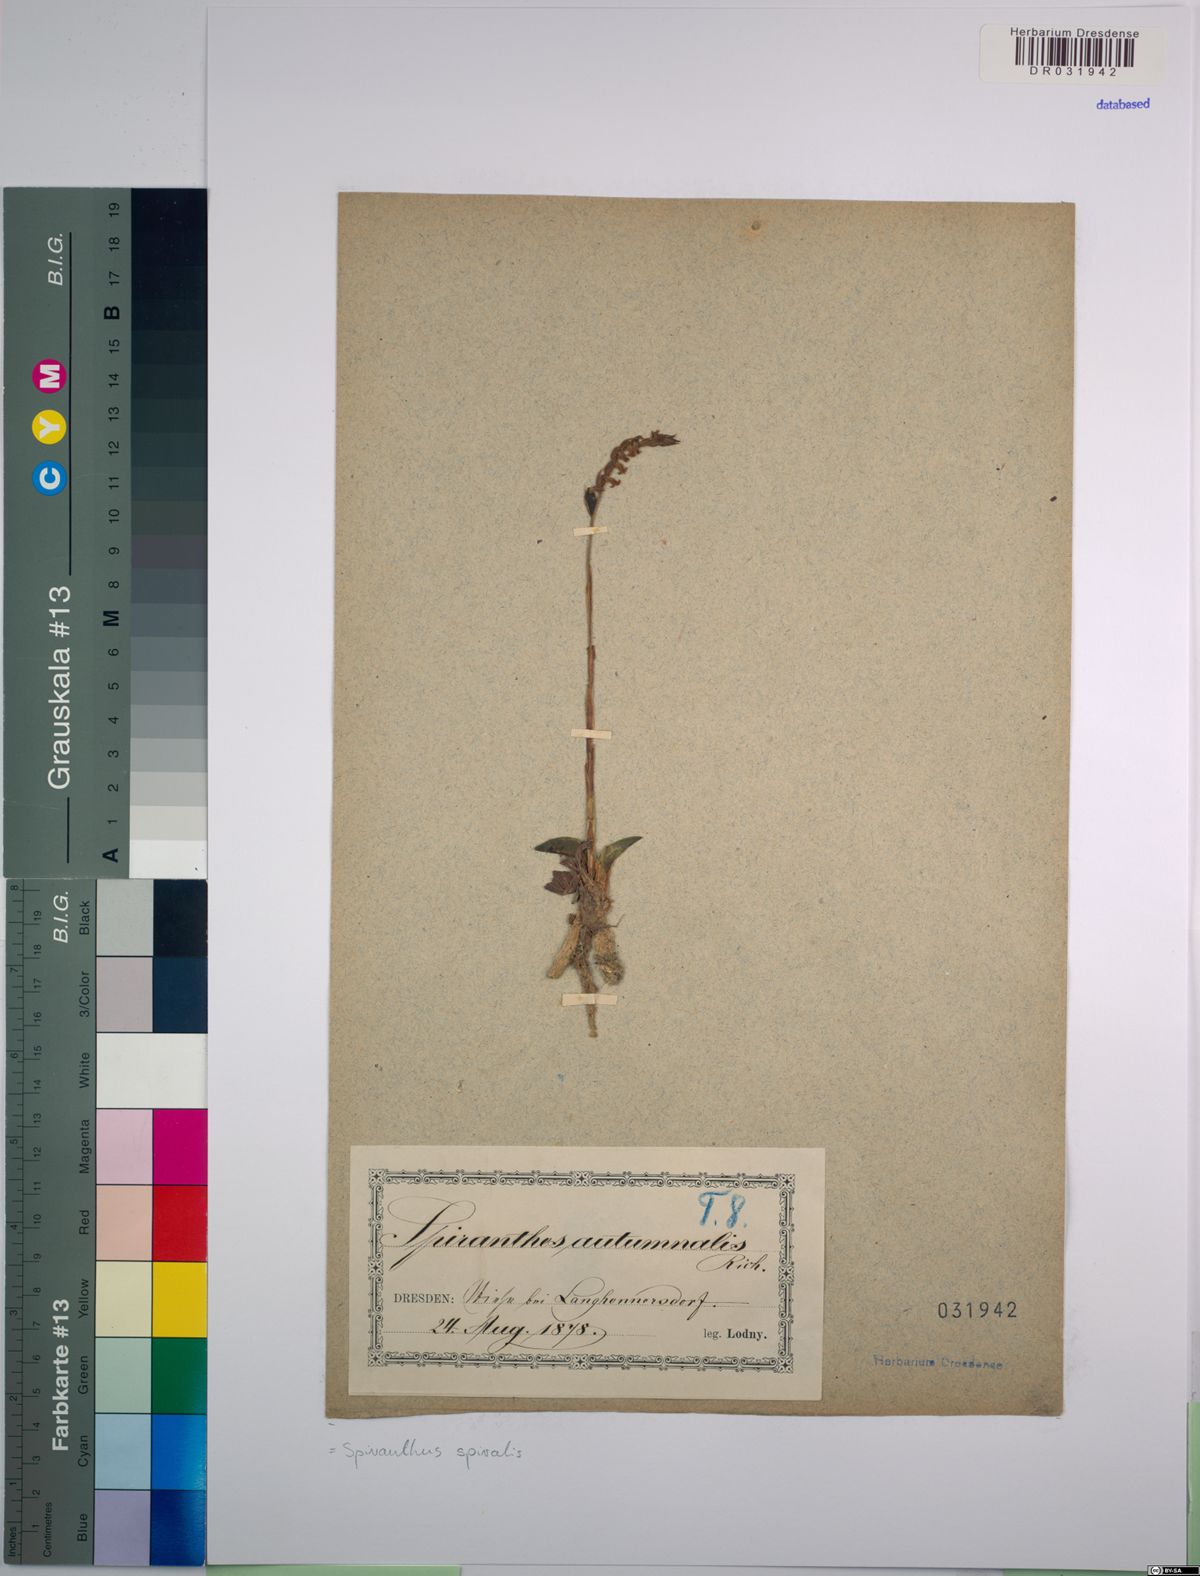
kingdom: Plantae
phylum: Tracheophyta
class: Liliopsida
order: Asparagales
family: Orchidaceae
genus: Spiranthes
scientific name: Spiranthes spiralis
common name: Autumn lady's-tresses
